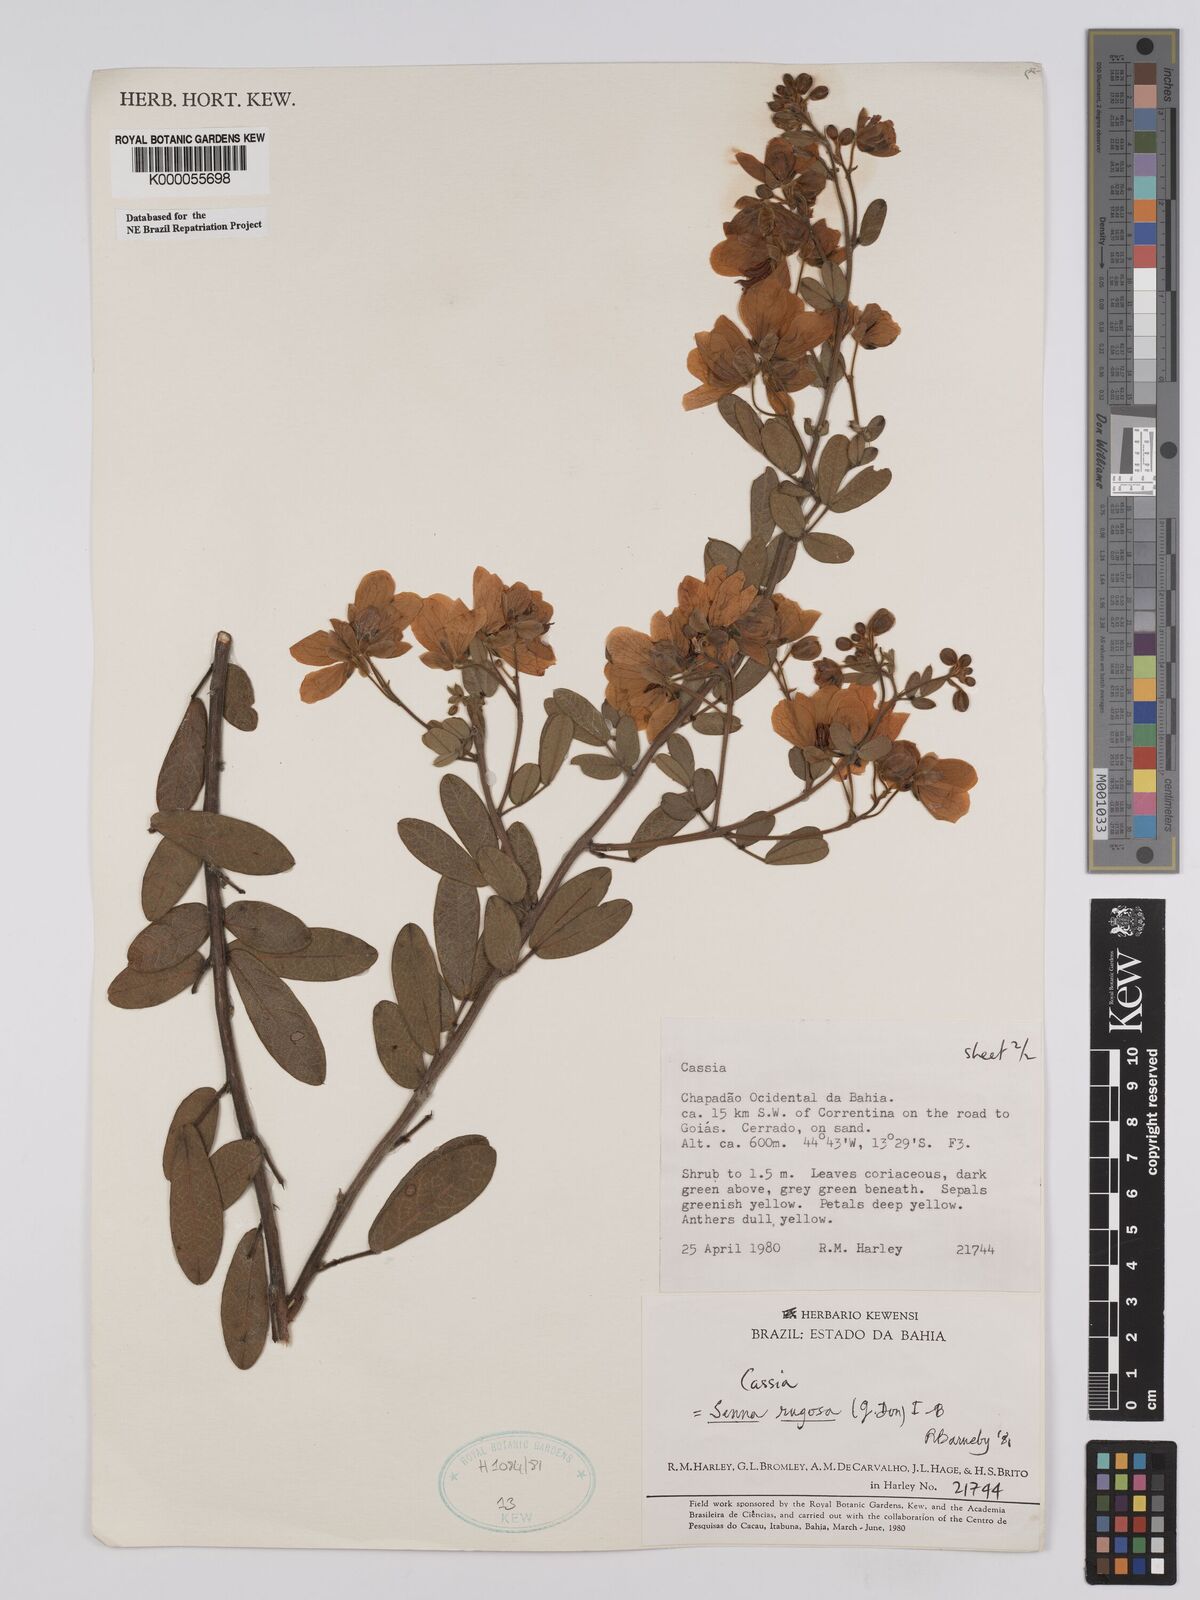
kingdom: Plantae
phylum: Tracheophyta
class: Magnoliopsida
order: Fabales
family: Fabaceae
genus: Senna
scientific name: Senna rugosa
